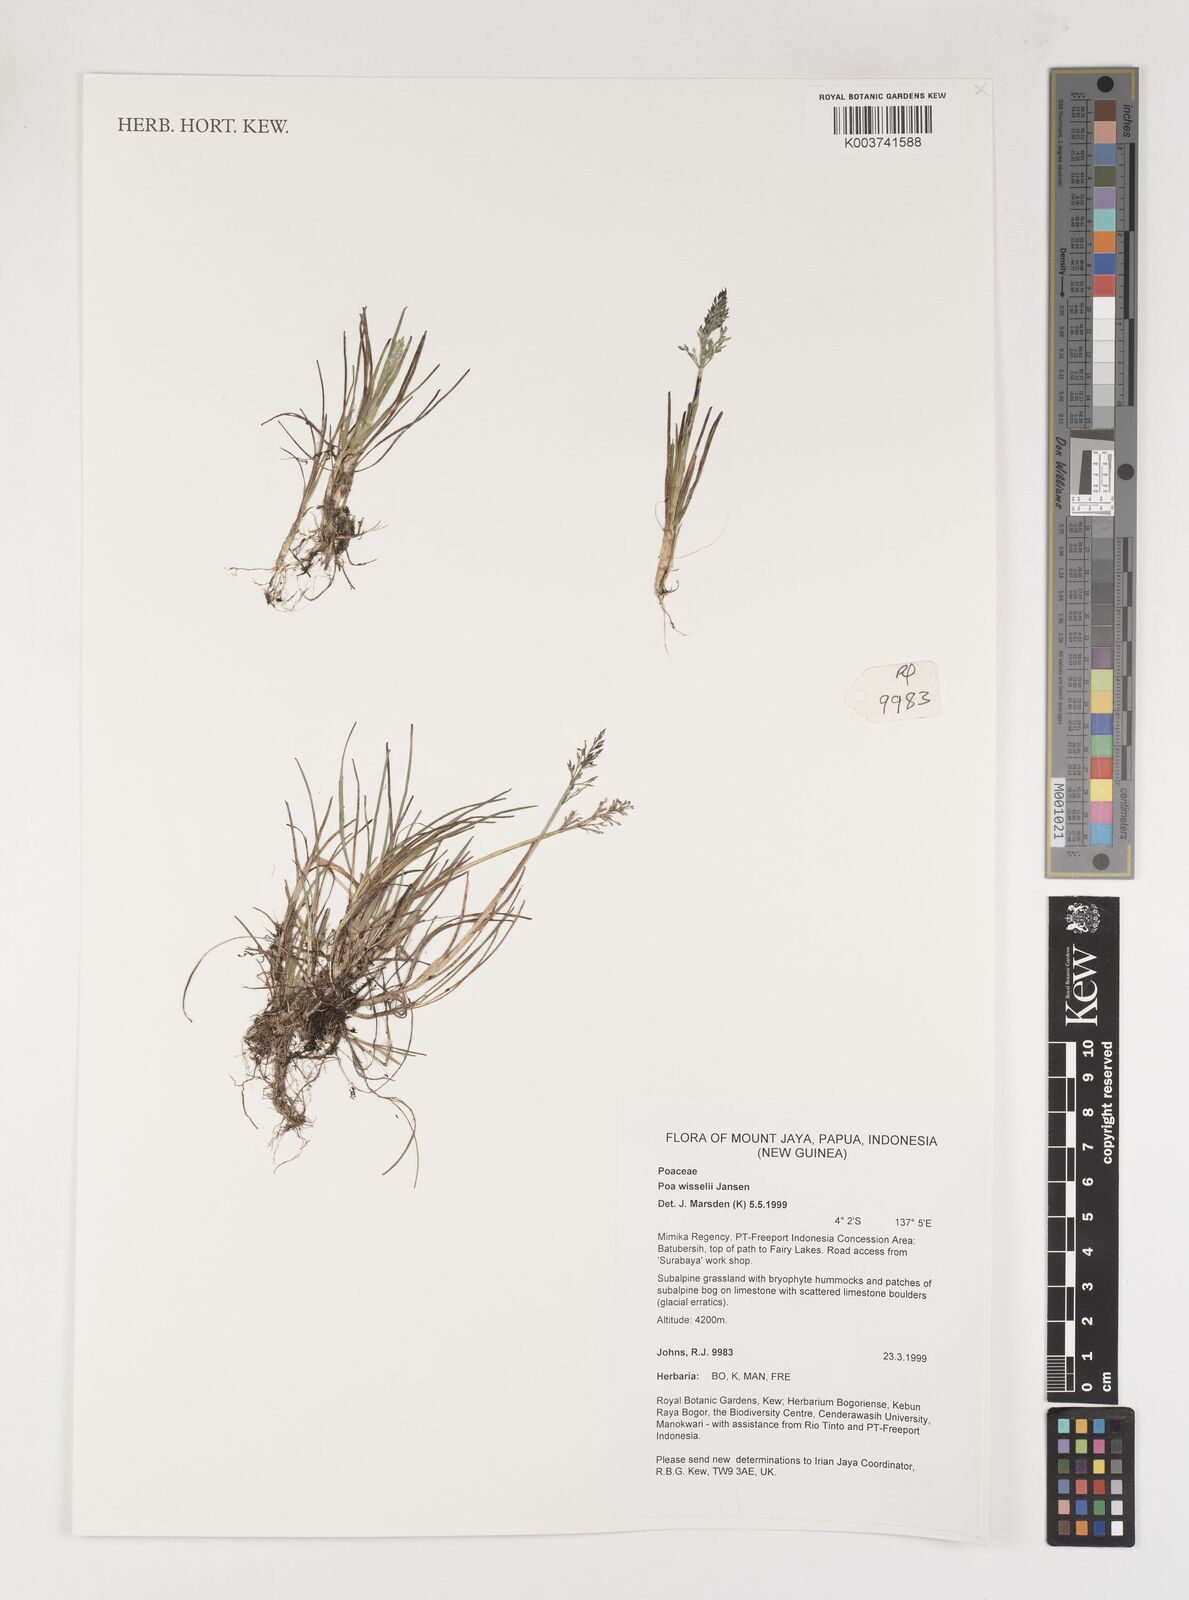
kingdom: Plantae
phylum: Tracheophyta
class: Liliopsida
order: Poales
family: Poaceae
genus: Poa
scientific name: Poa wisselii
